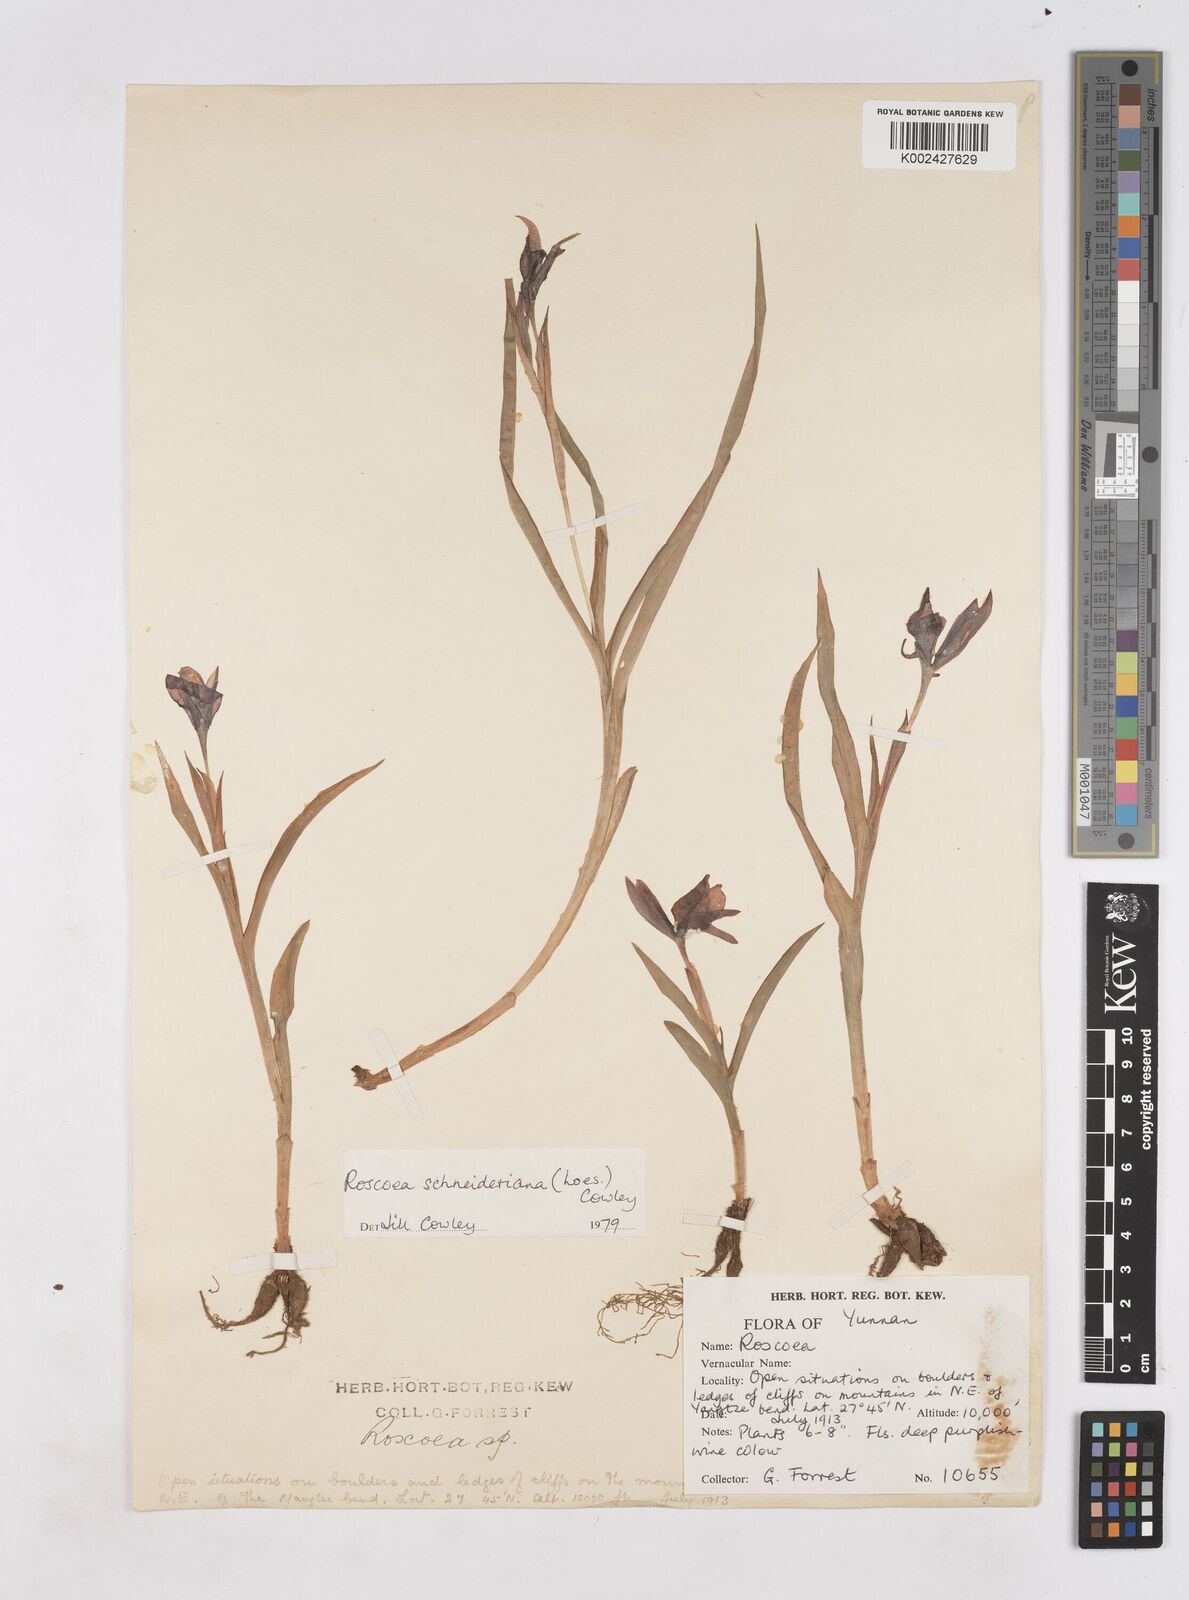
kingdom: Plantae
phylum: Tracheophyta
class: Liliopsida
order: Zingiberales
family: Zingiberaceae
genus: Roscoea
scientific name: Roscoea schneideriana
